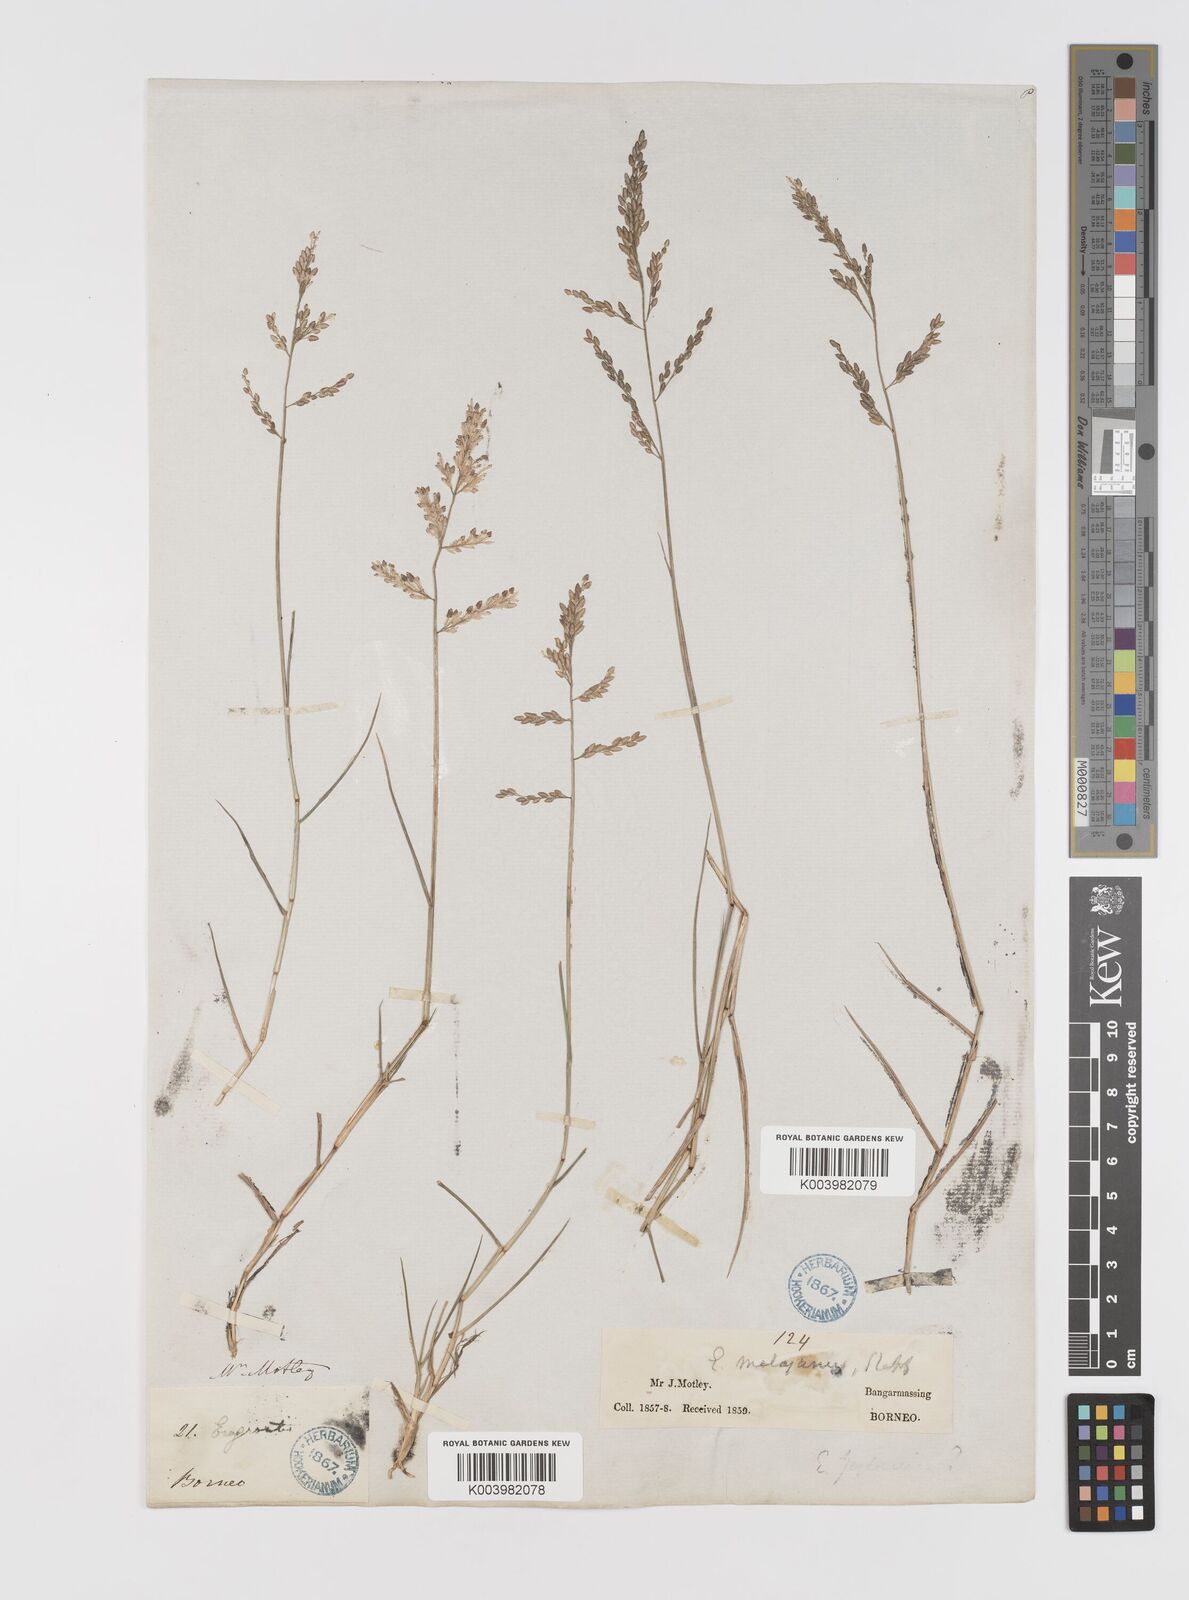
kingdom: Plantae
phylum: Tracheophyta
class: Liliopsida
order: Poales
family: Poaceae
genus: Eragrostis
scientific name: Eragrostis montana
